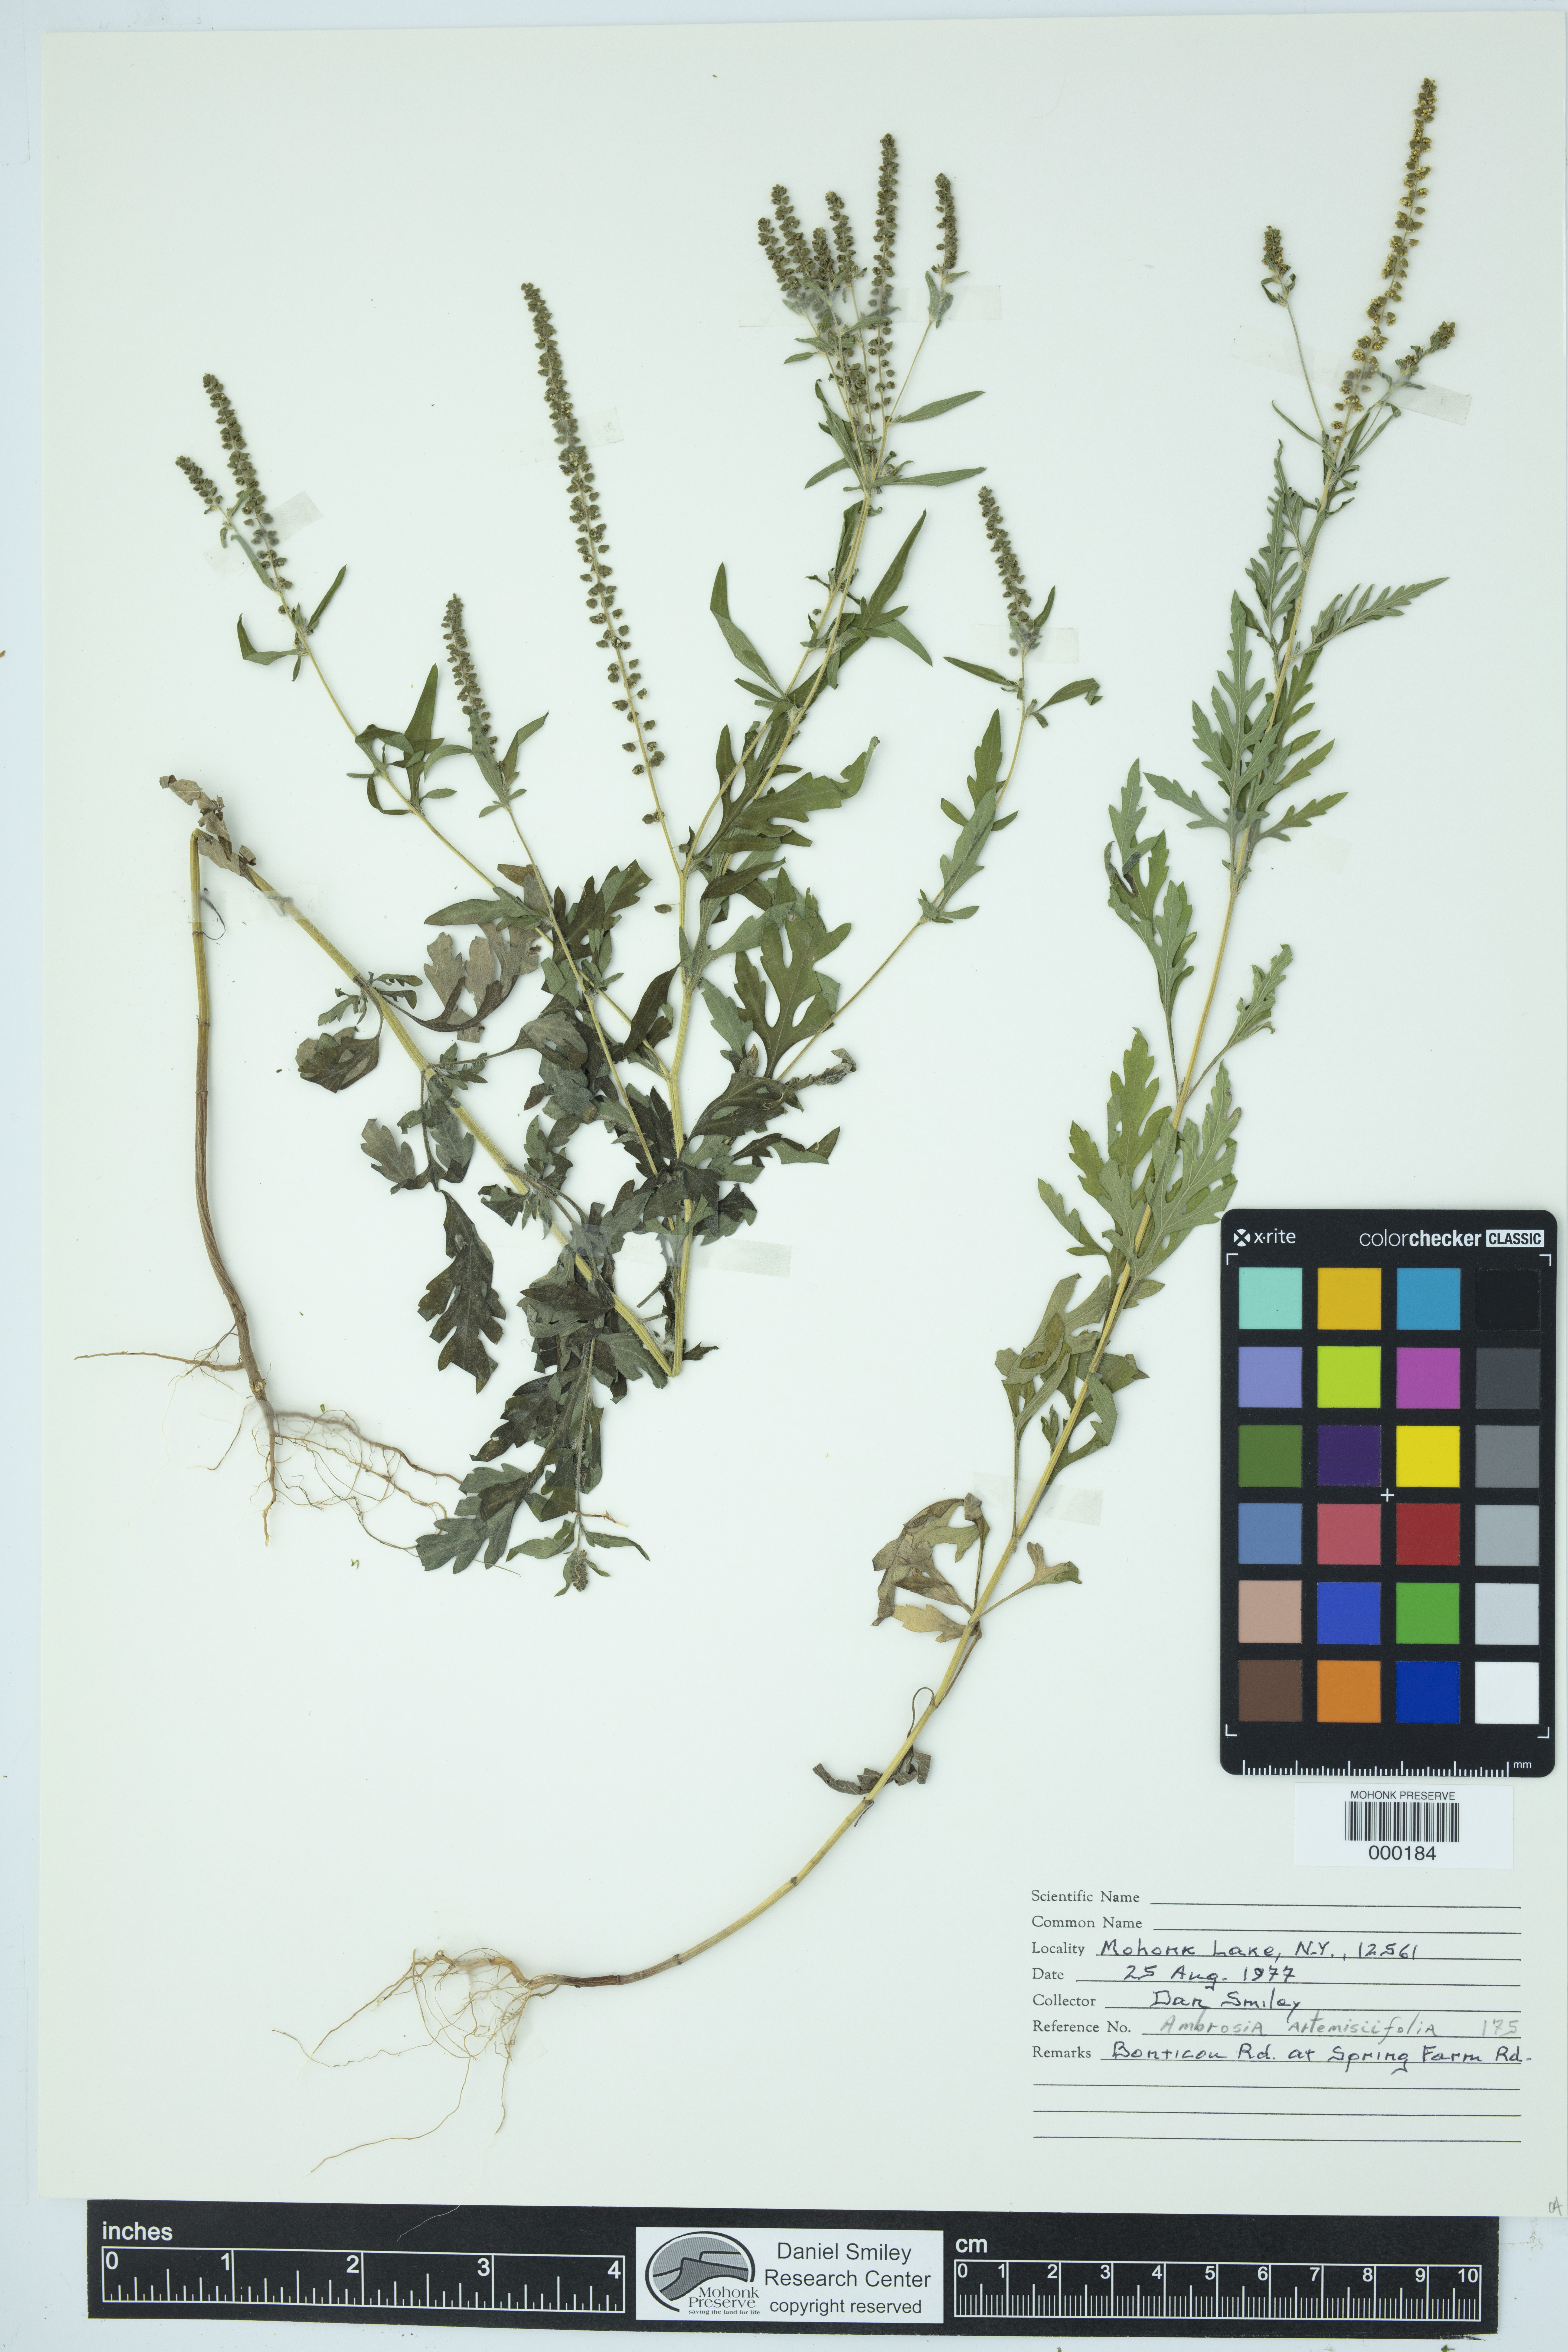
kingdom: Plantae
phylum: Tracheophyta
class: Magnoliopsida
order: Asterales
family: Asteraceae
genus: Ambrosia
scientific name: Ambrosia artemisiifolia
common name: Annual ragweed
